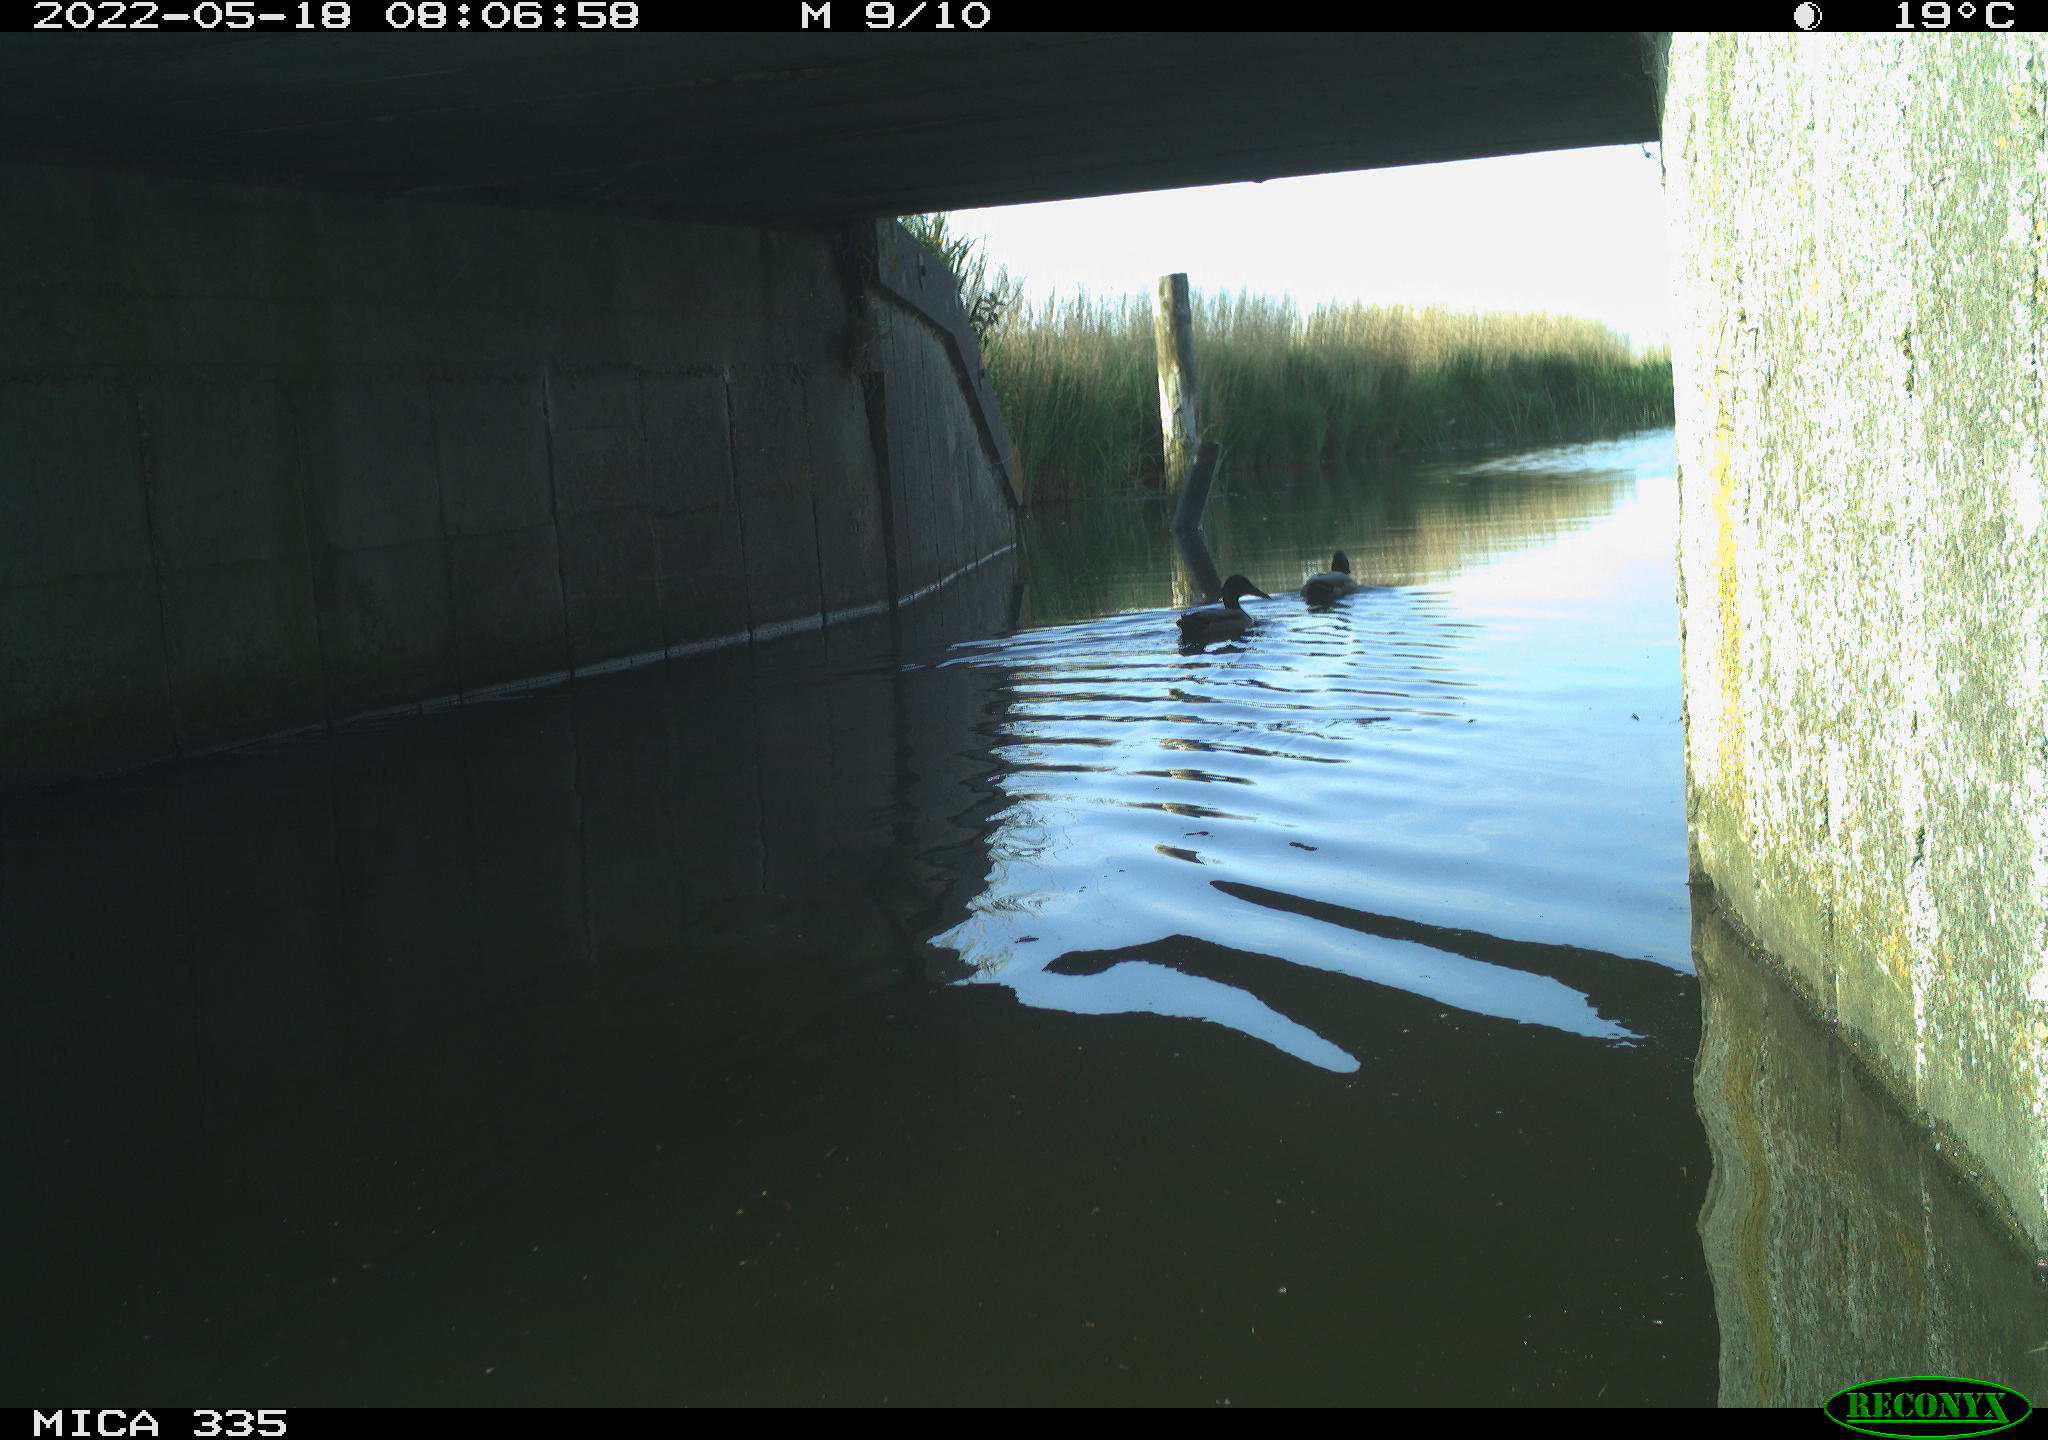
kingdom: Animalia
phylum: Chordata
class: Aves
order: Anseriformes
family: Anatidae
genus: Anas
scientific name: Anas platyrhynchos
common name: Mallard
